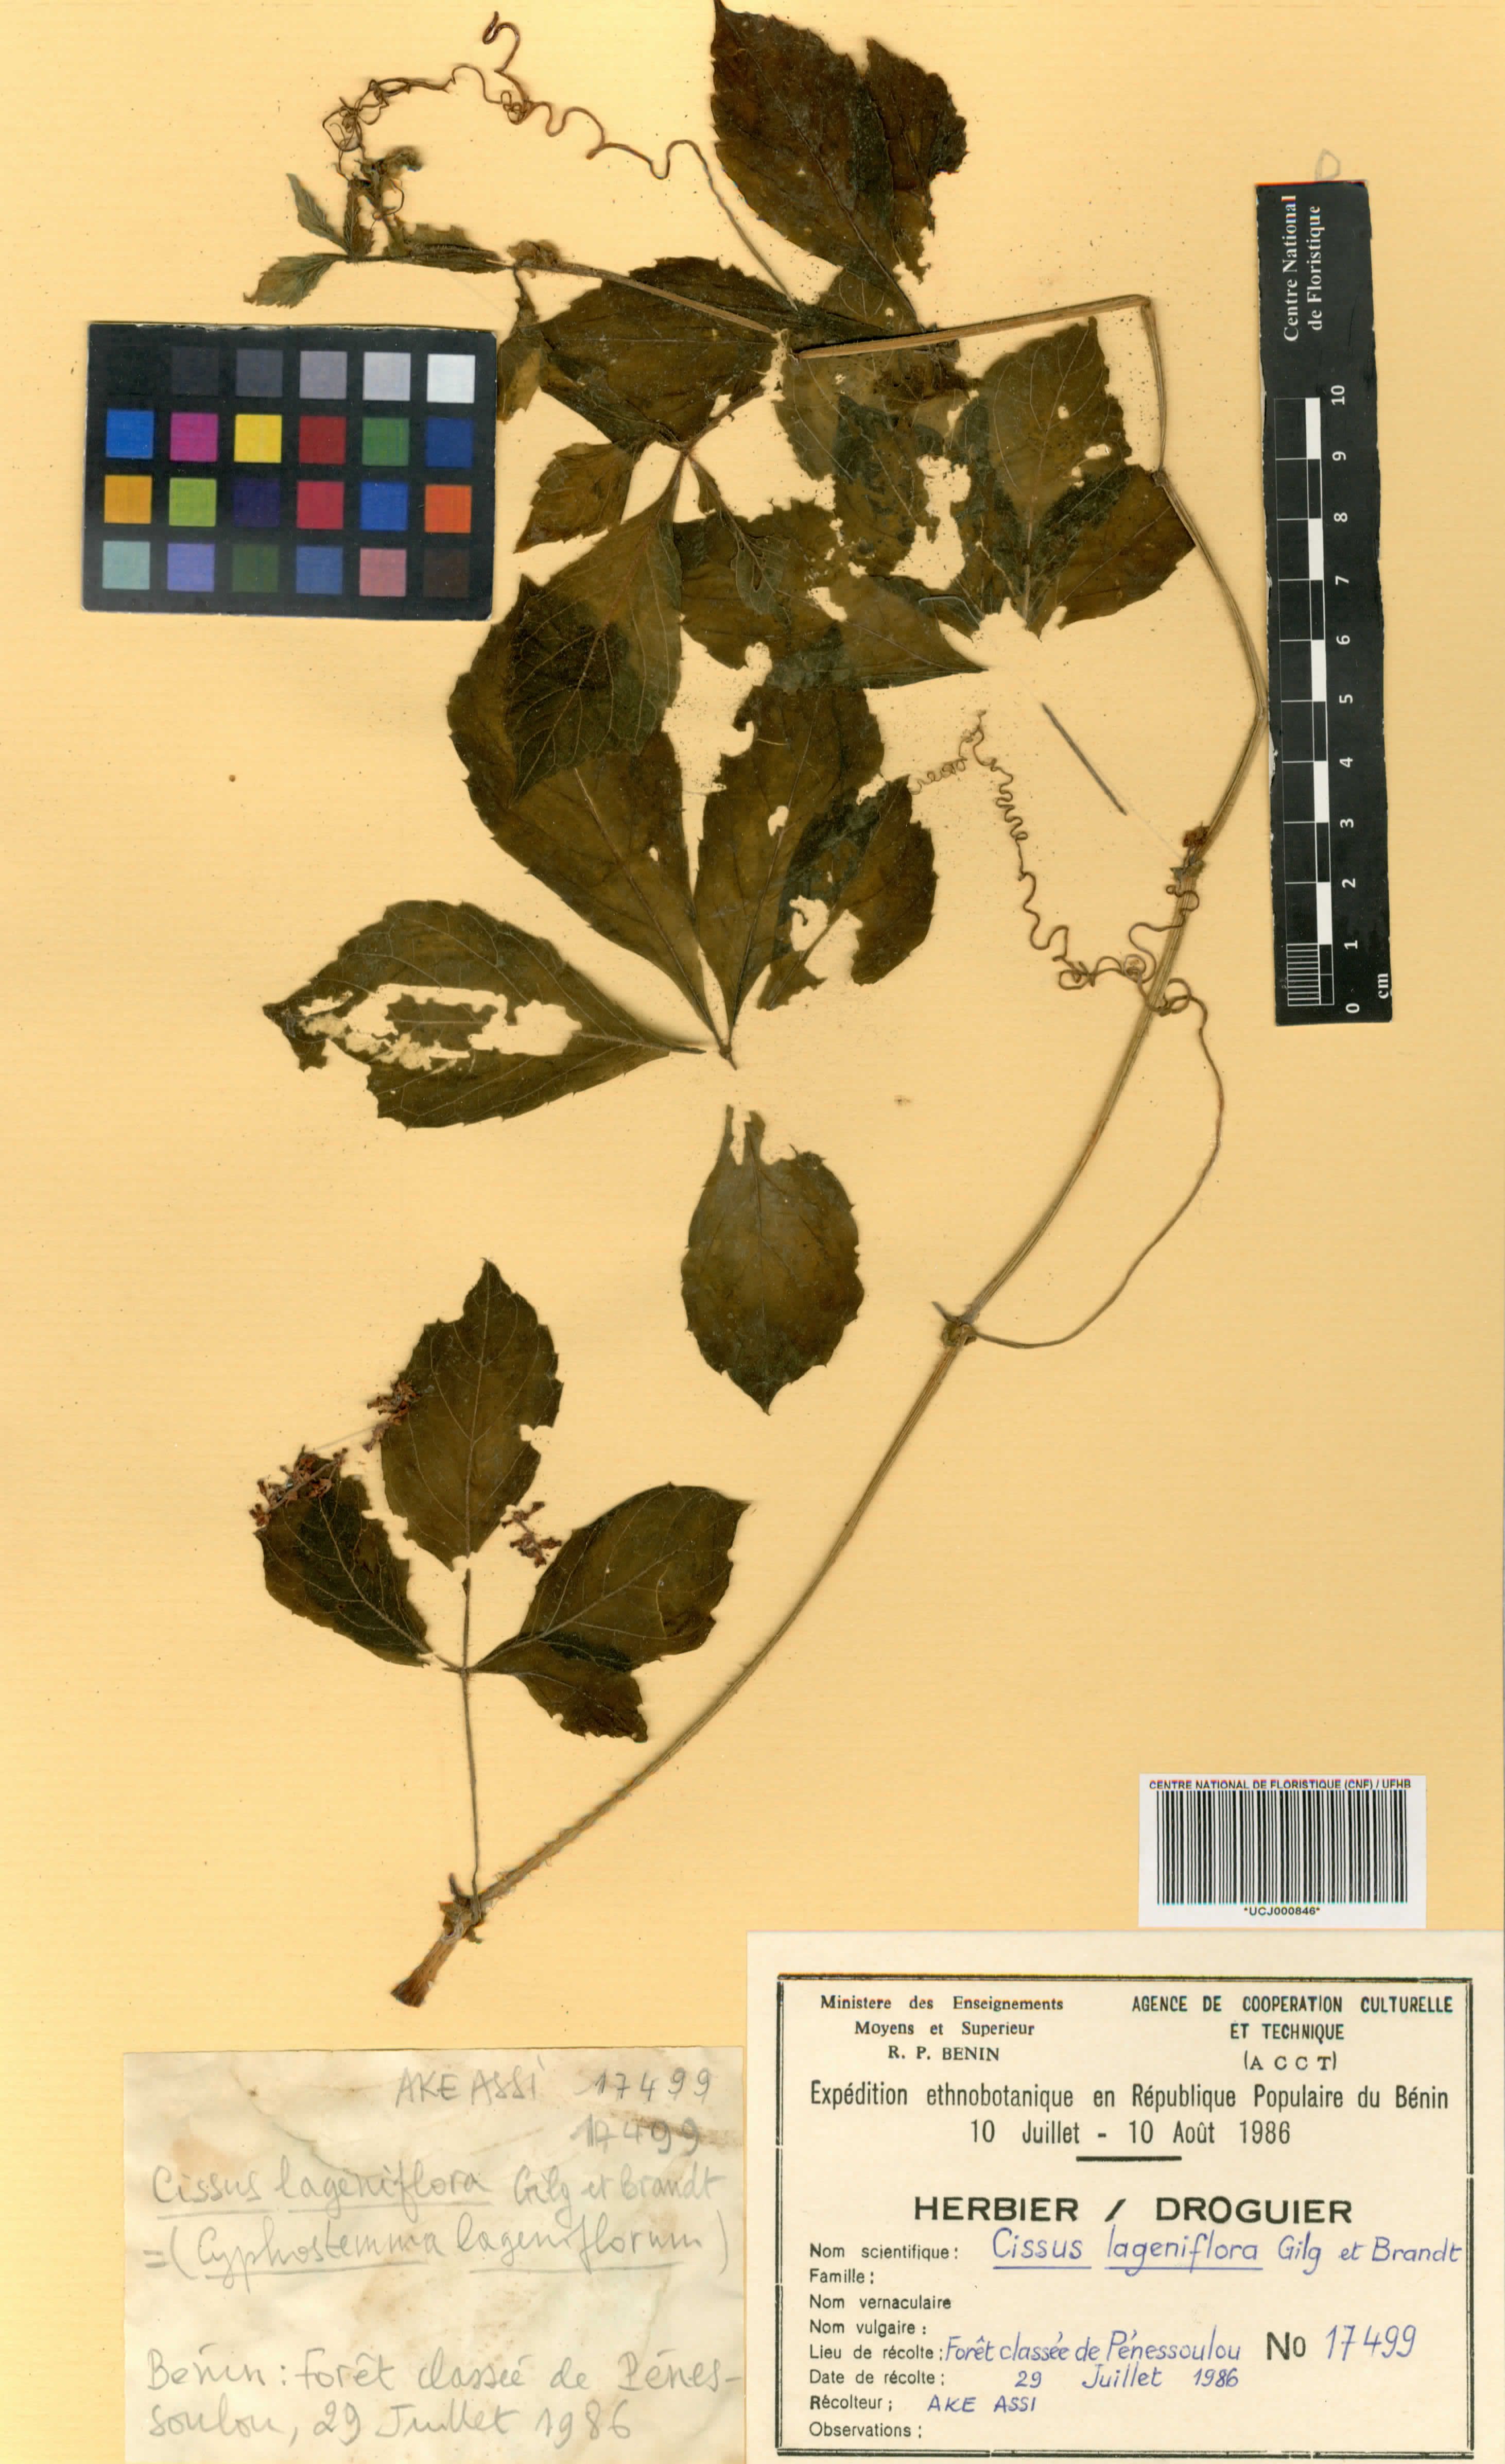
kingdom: Plantae
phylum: Tracheophyta
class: Magnoliopsida
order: Vitales
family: Vitaceae
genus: Cyphostemma
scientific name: Cyphostemma lageniflorum
